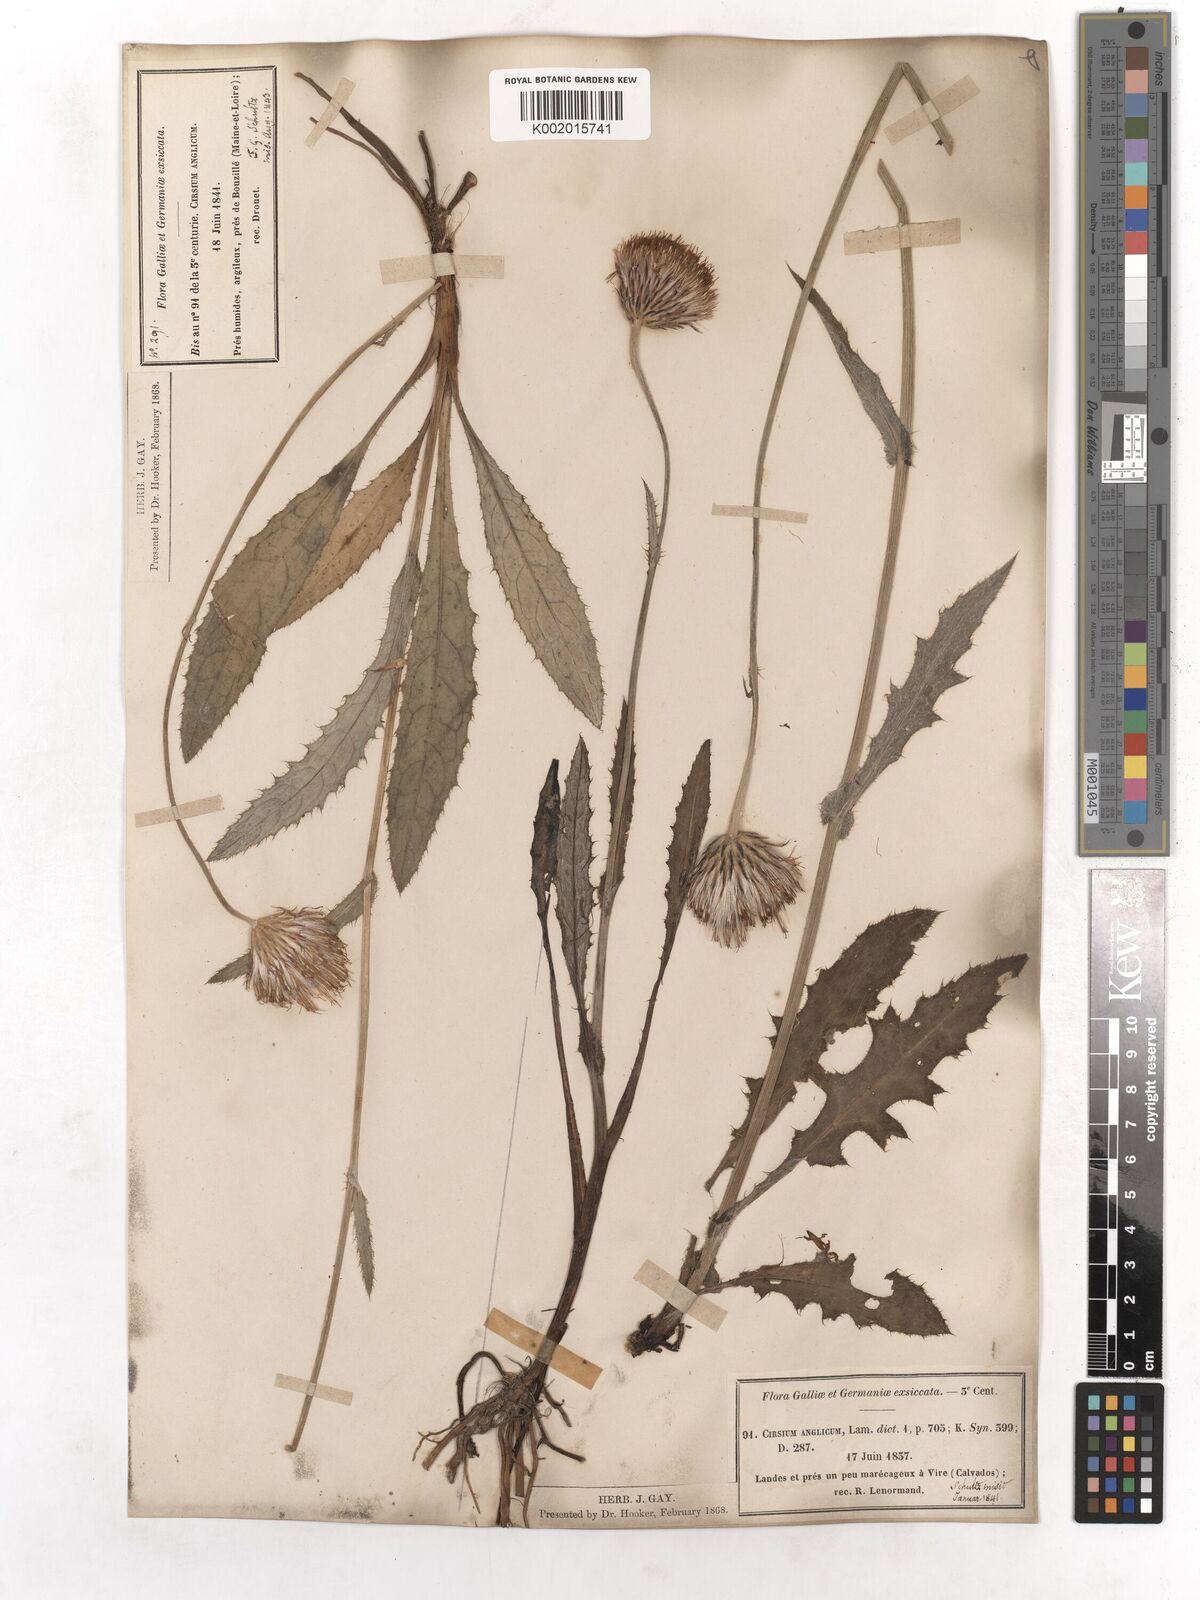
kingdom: Plantae
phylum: Tracheophyta
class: Magnoliopsida
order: Asterales
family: Asteraceae
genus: Cirsium
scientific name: Cirsium dissectum
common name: Meadow thistle
